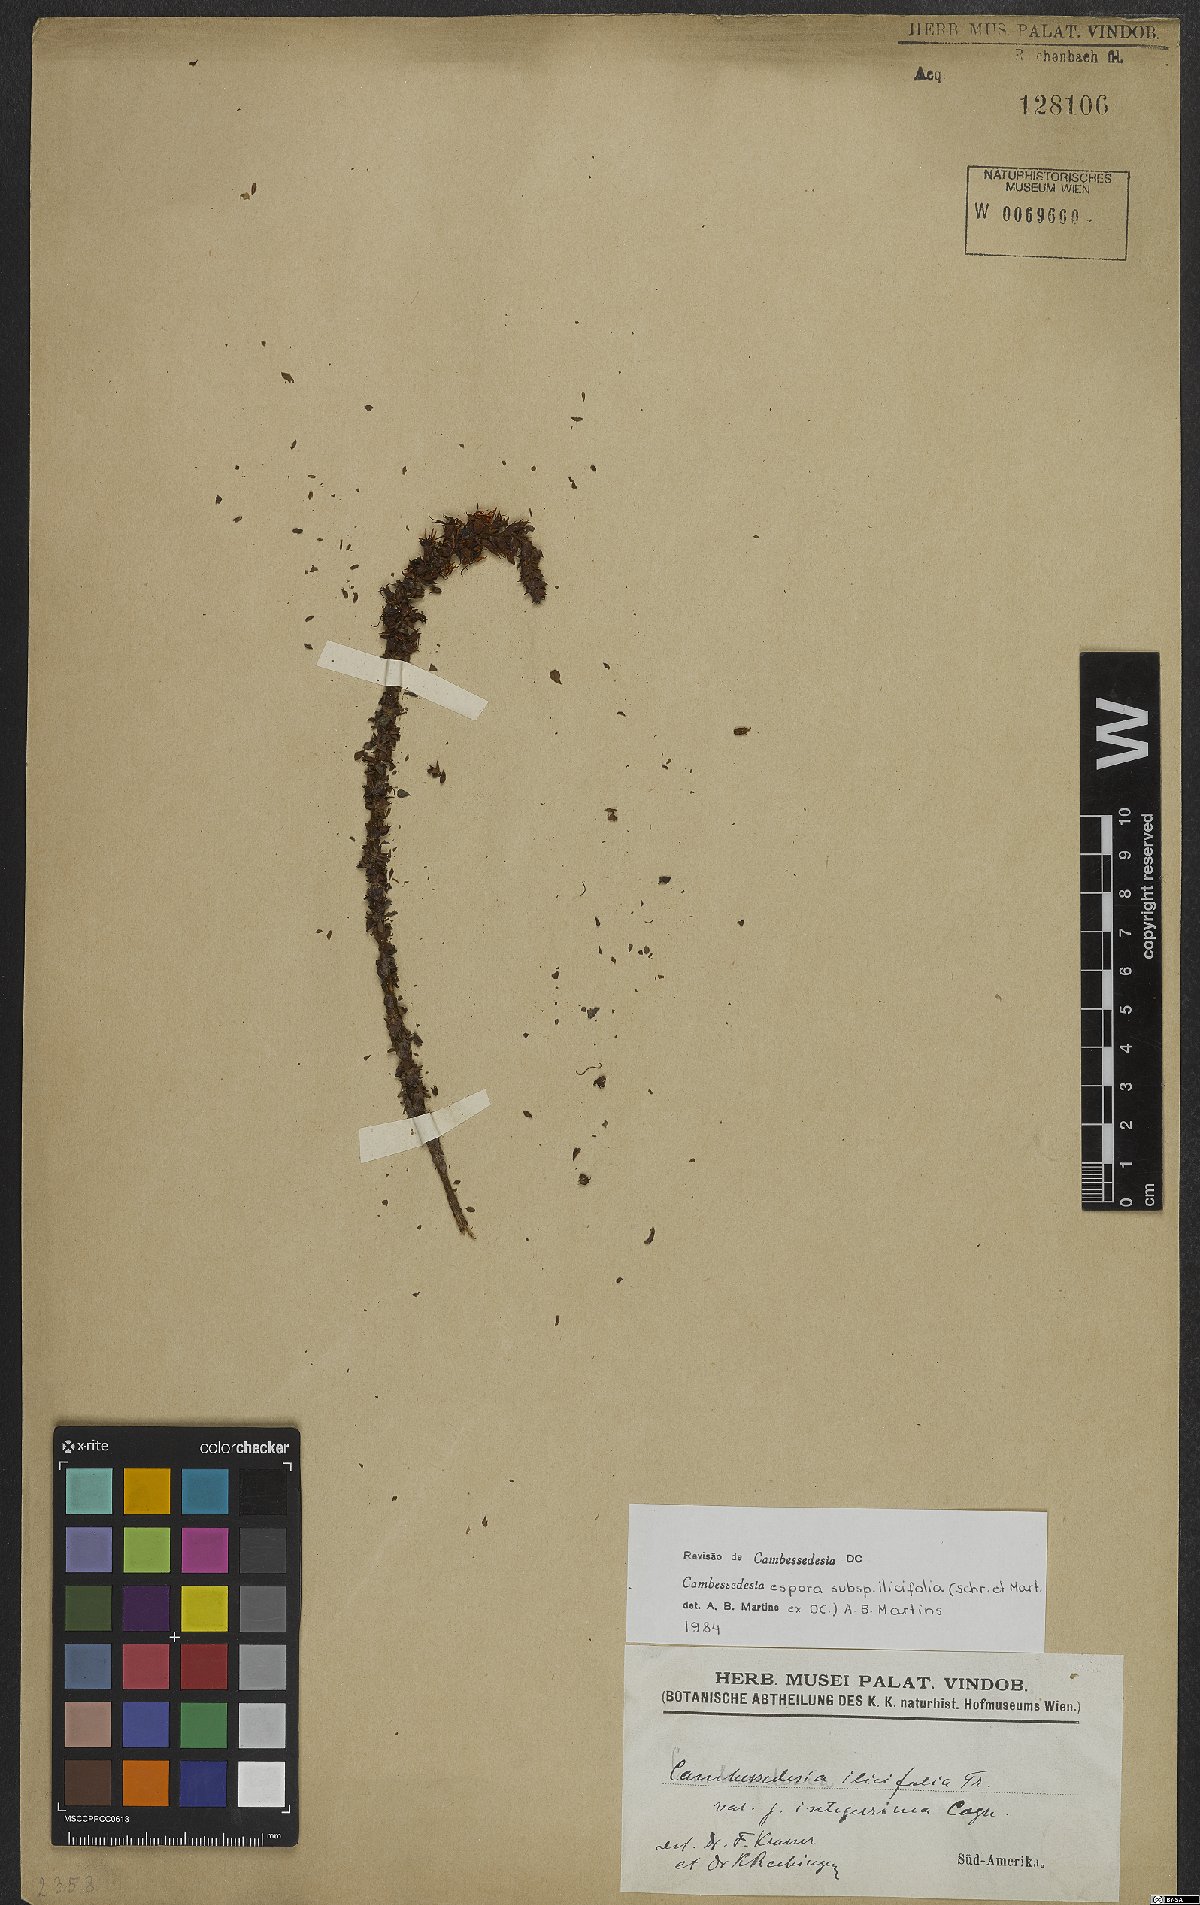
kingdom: Plantae
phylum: Tracheophyta
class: Magnoliopsida
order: Myrtales
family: Melastomataceae
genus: Cambessedesia
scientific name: Cambessedesia espora
